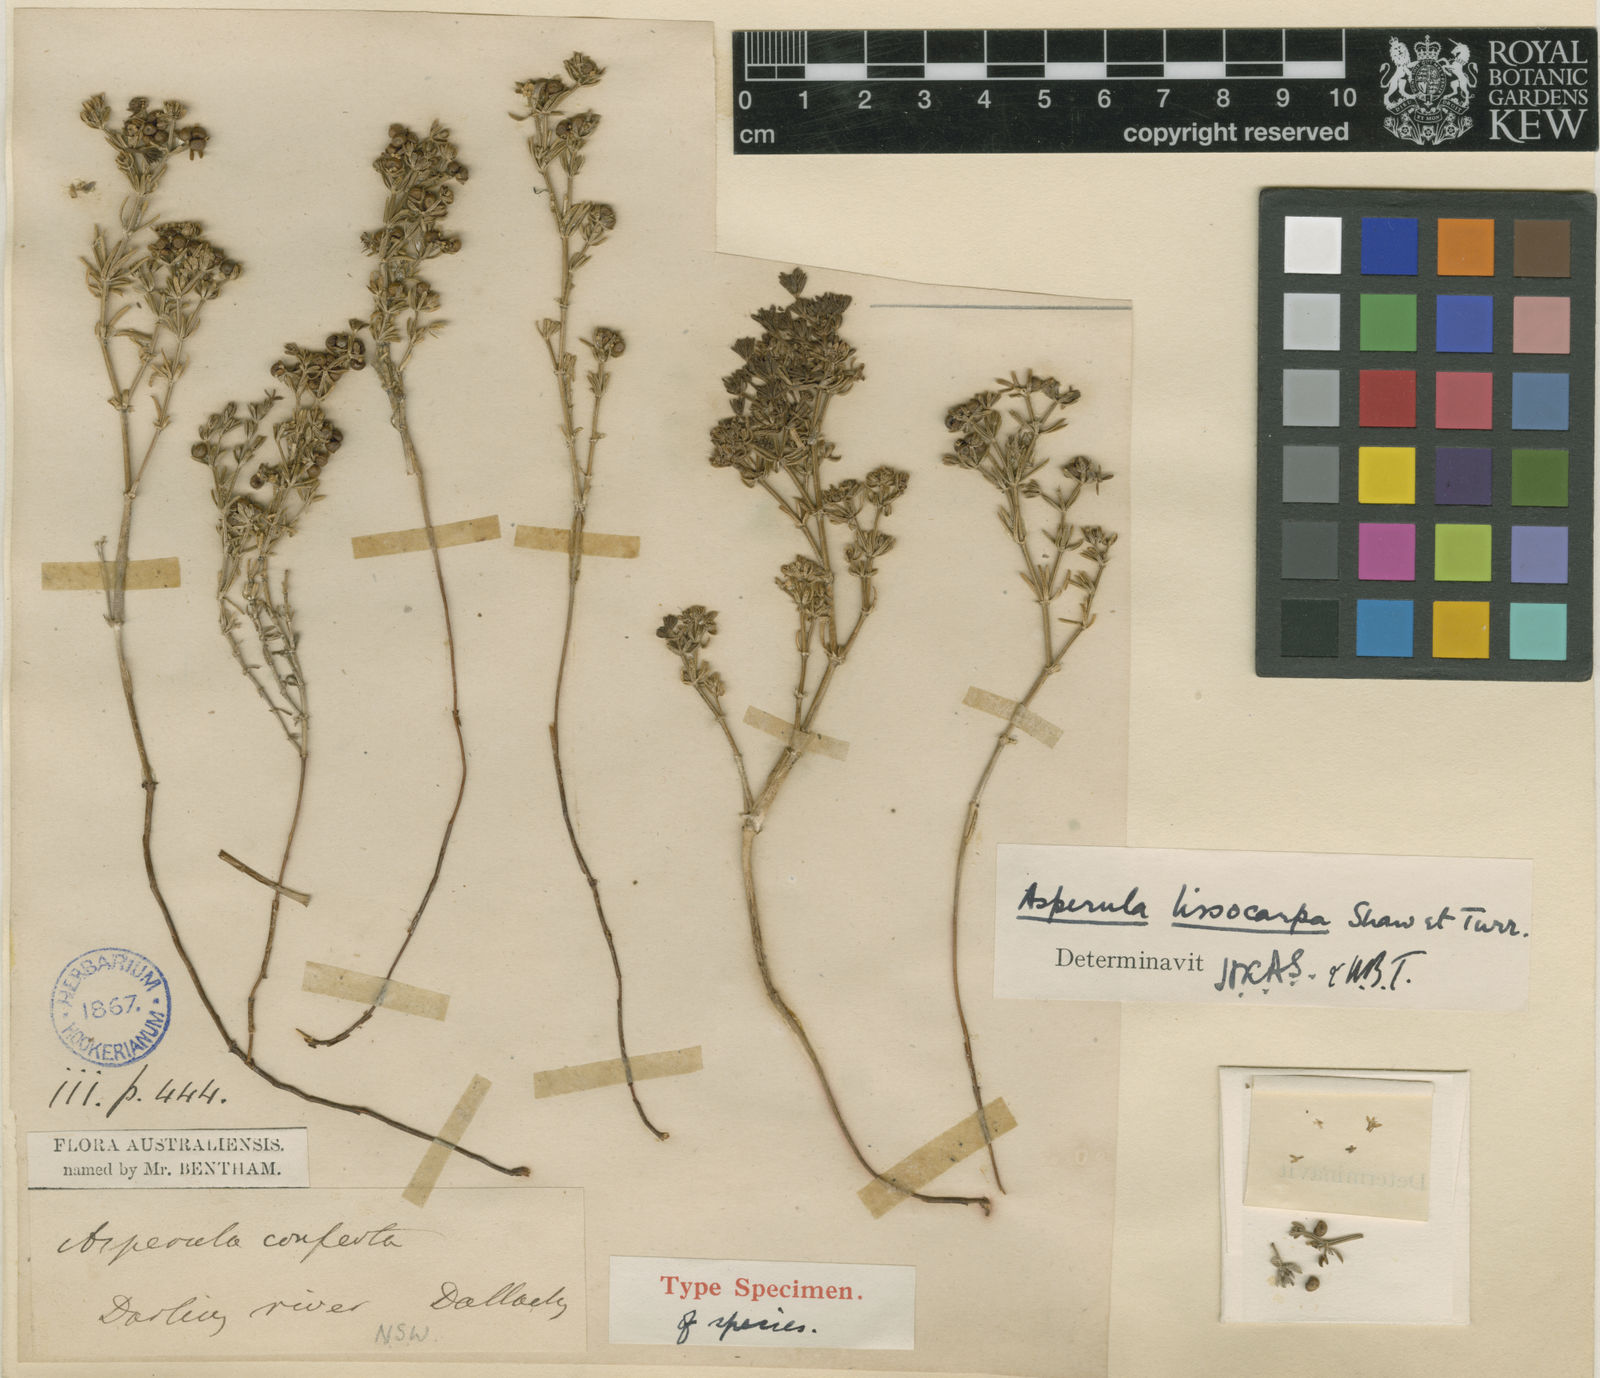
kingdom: Plantae
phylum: Tracheophyta
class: Magnoliopsida
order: Gentianales
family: Rubiaceae
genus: Asperula
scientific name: Asperula syrticola
